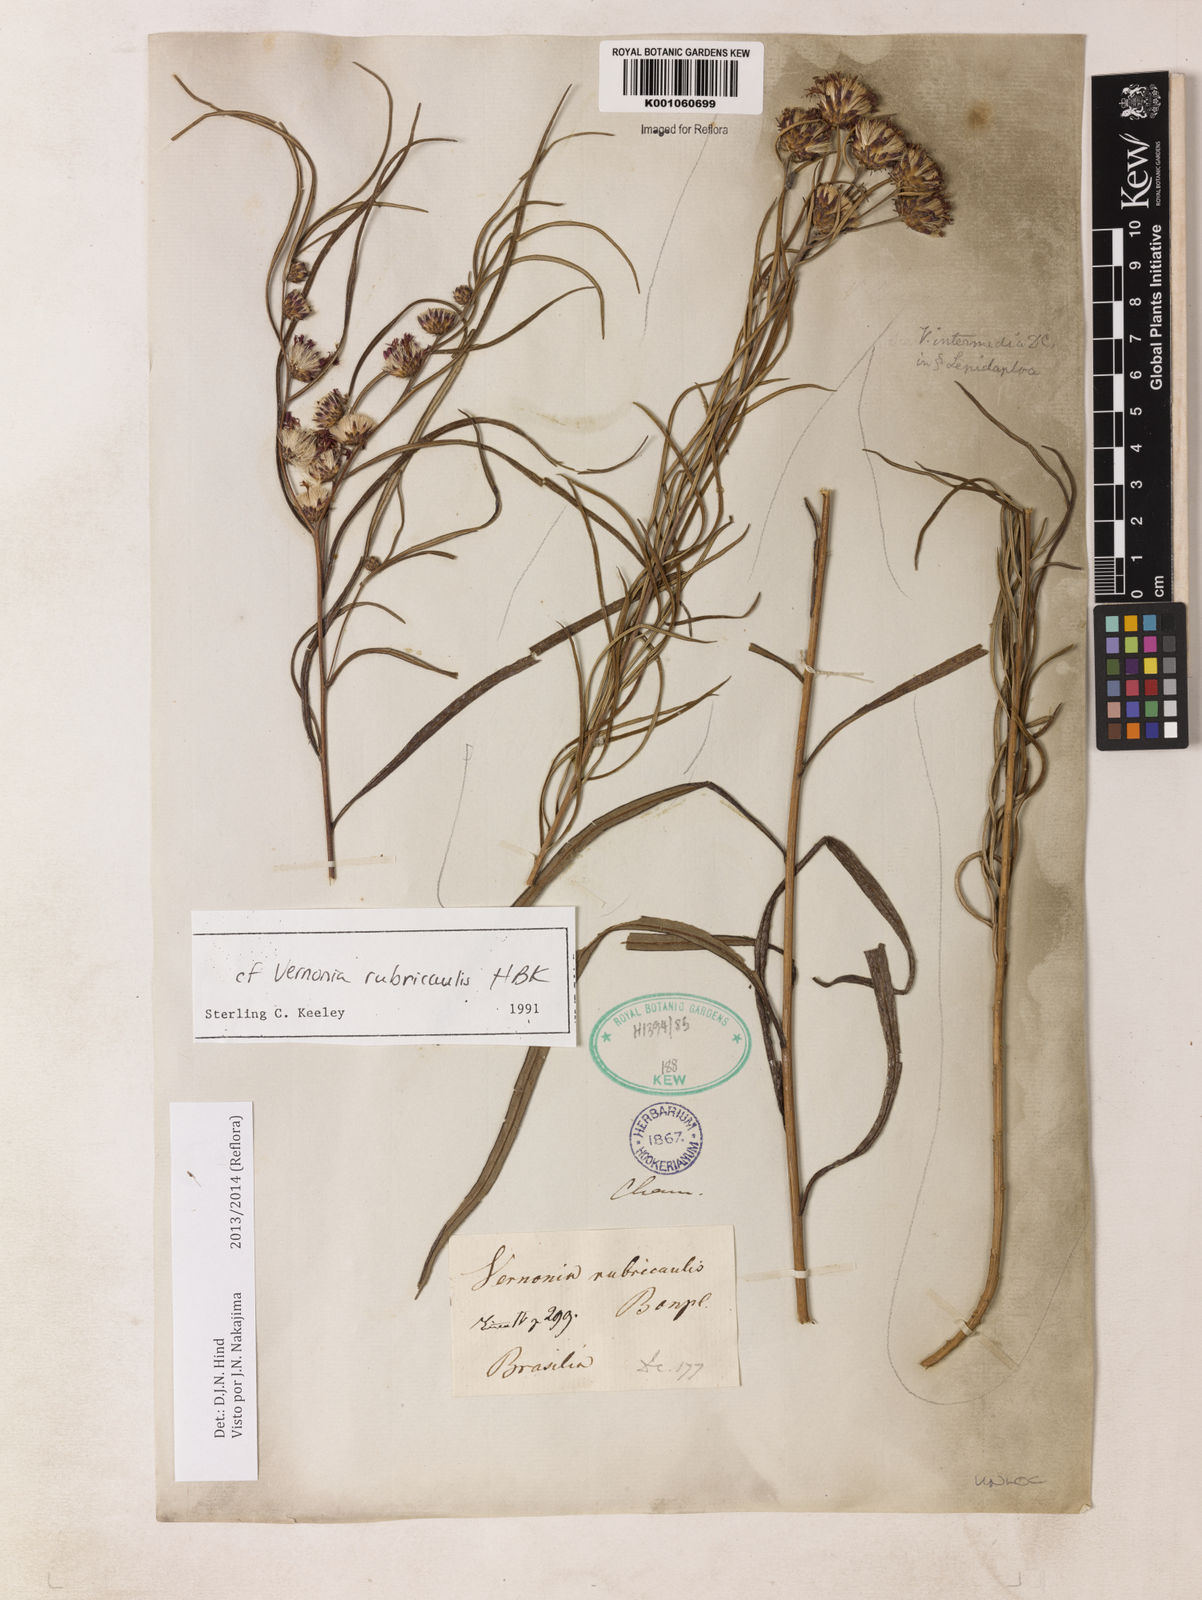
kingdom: Plantae
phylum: Tracheophyta
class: Magnoliopsida
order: Asterales
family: Asteraceae
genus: Lessingianthus
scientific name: Lessingianthus rubricaulis
